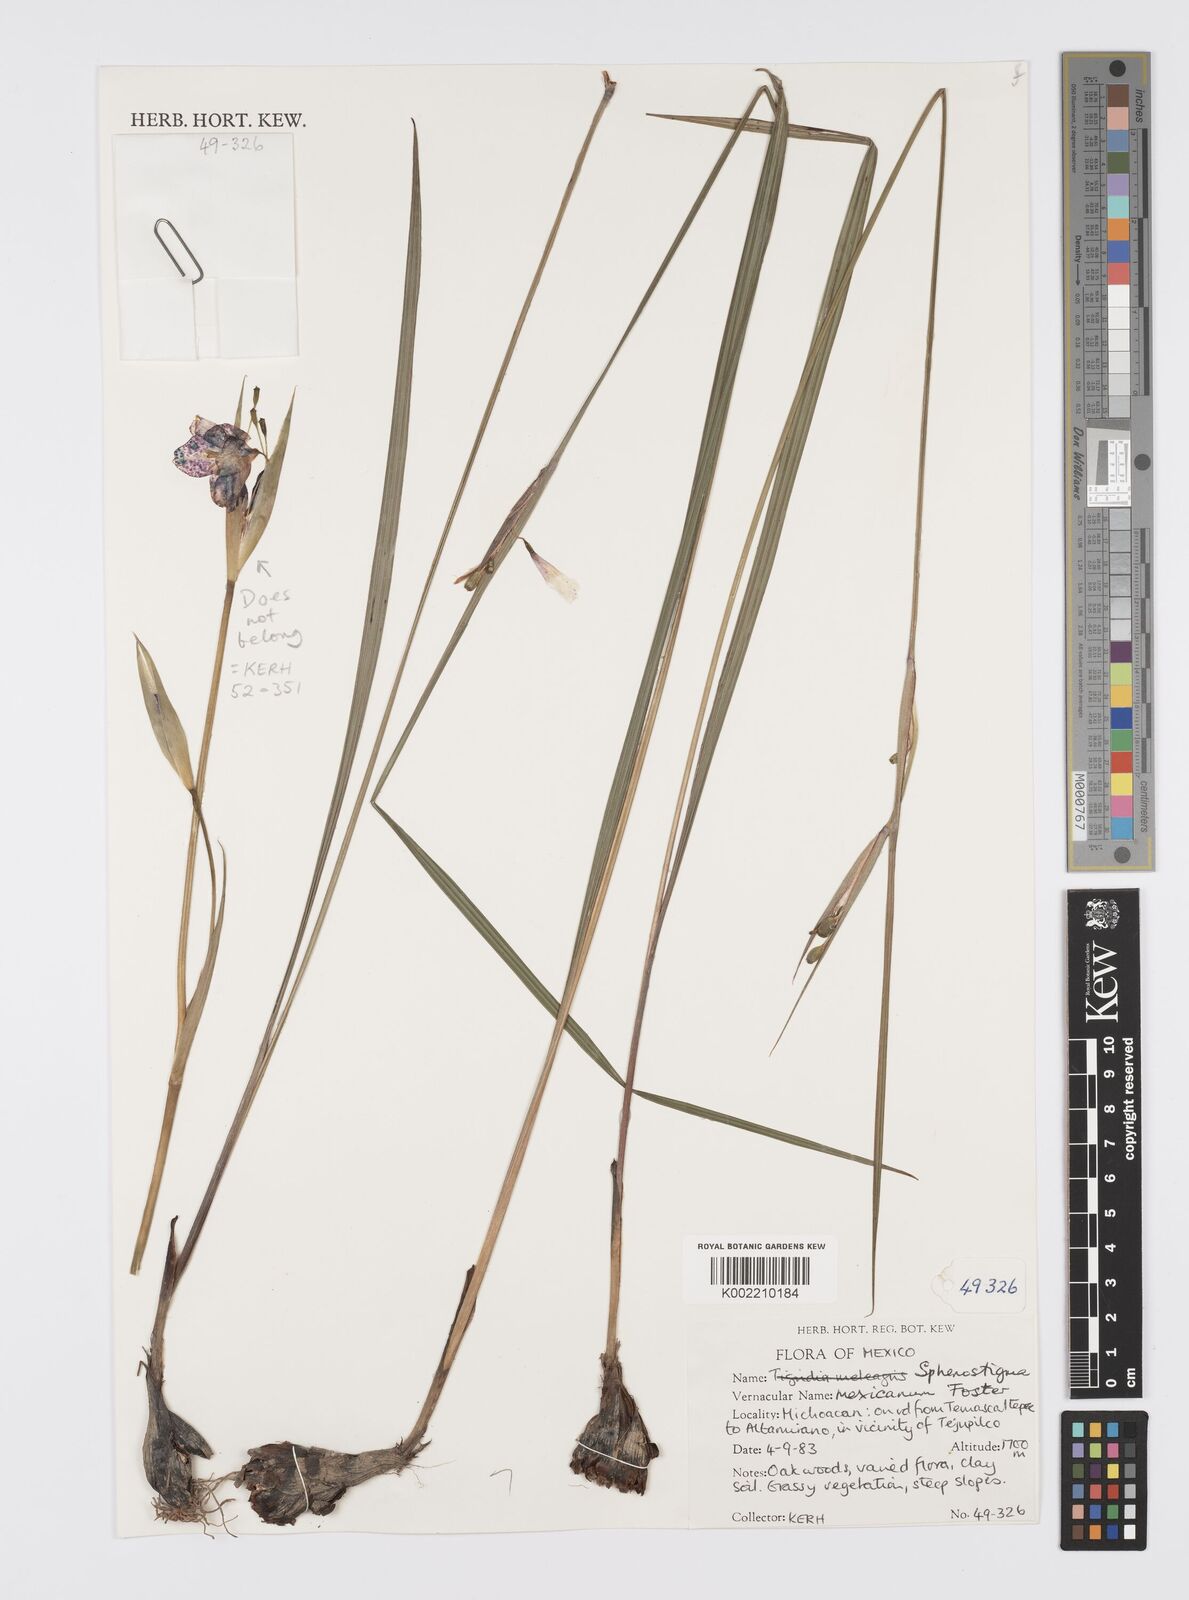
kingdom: Plantae
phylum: Tracheophyta
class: Liliopsida
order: Asparagales
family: Iridaceae
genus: Gelasine
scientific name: Gelasine
